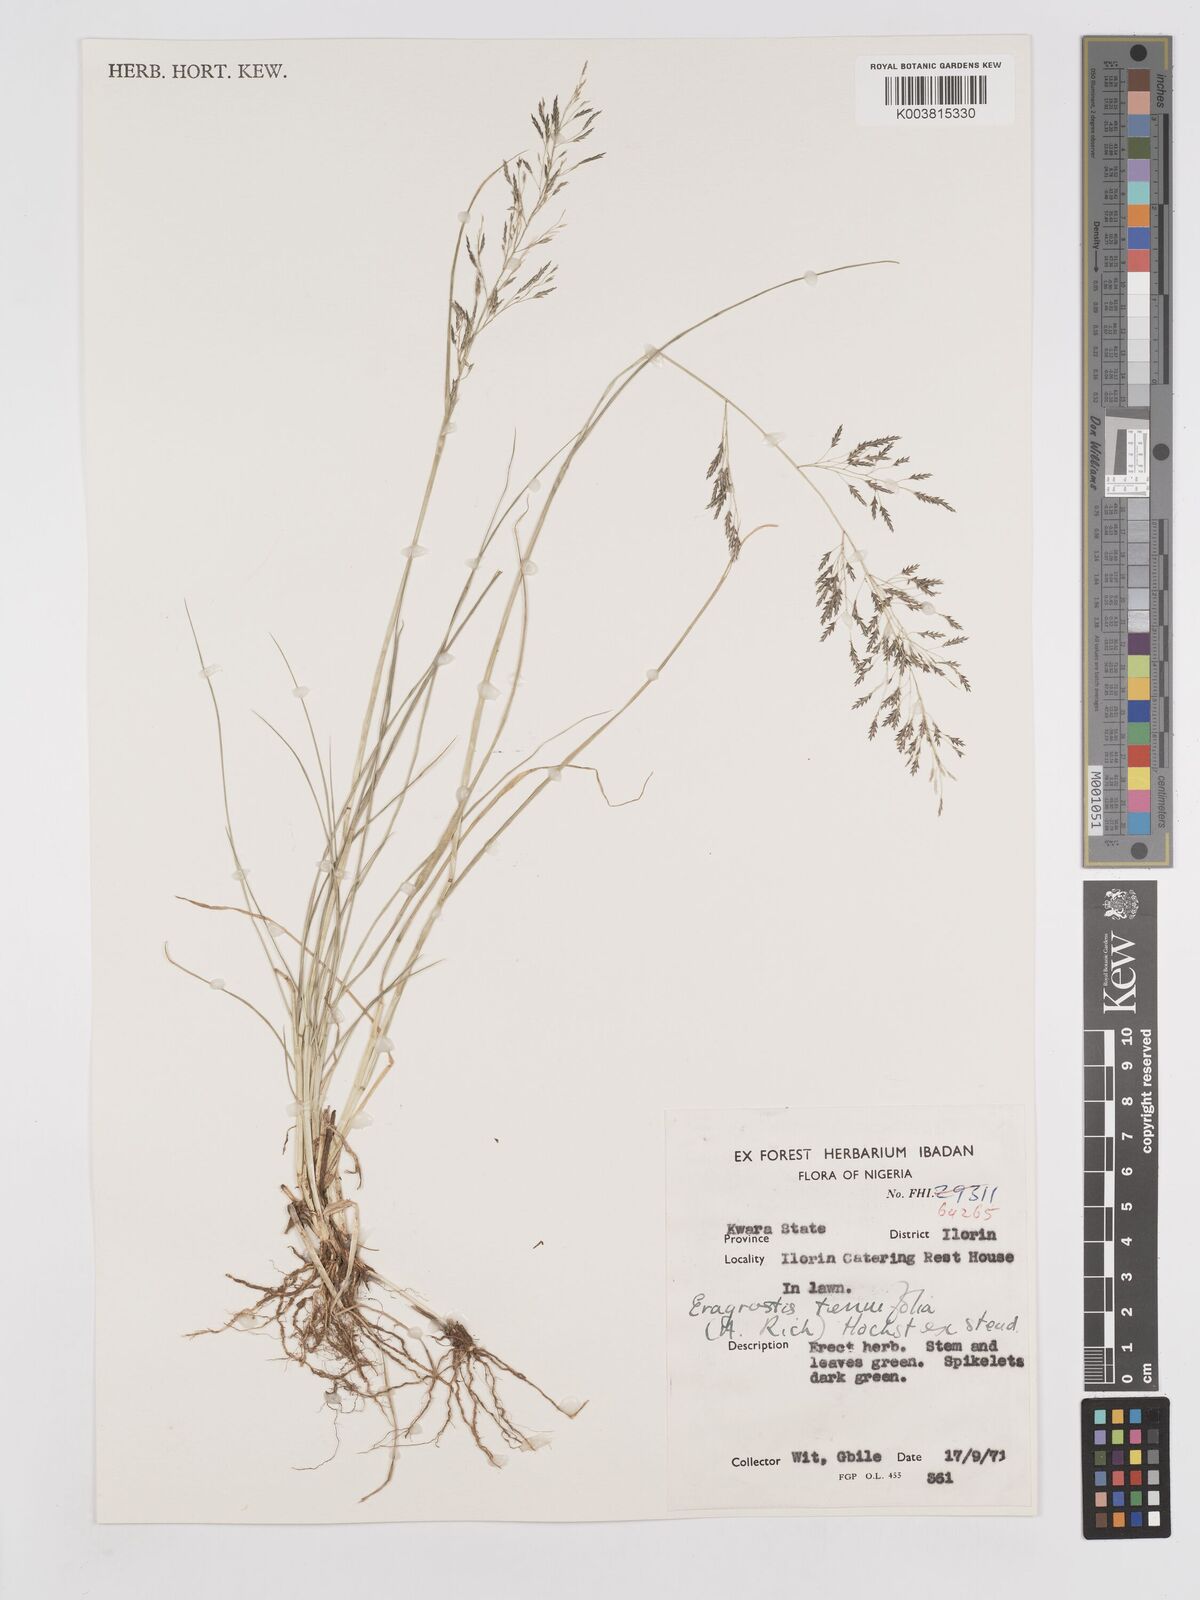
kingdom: Plantae
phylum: Tracheophyta
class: Liliopsida
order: Poales
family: Poaceae
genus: Eragrostis
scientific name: Eragrostis tenuifolia
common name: Elastic grass
